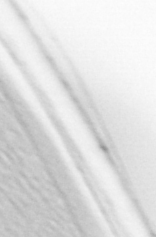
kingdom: Animalia
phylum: Chordata
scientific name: Chordata
